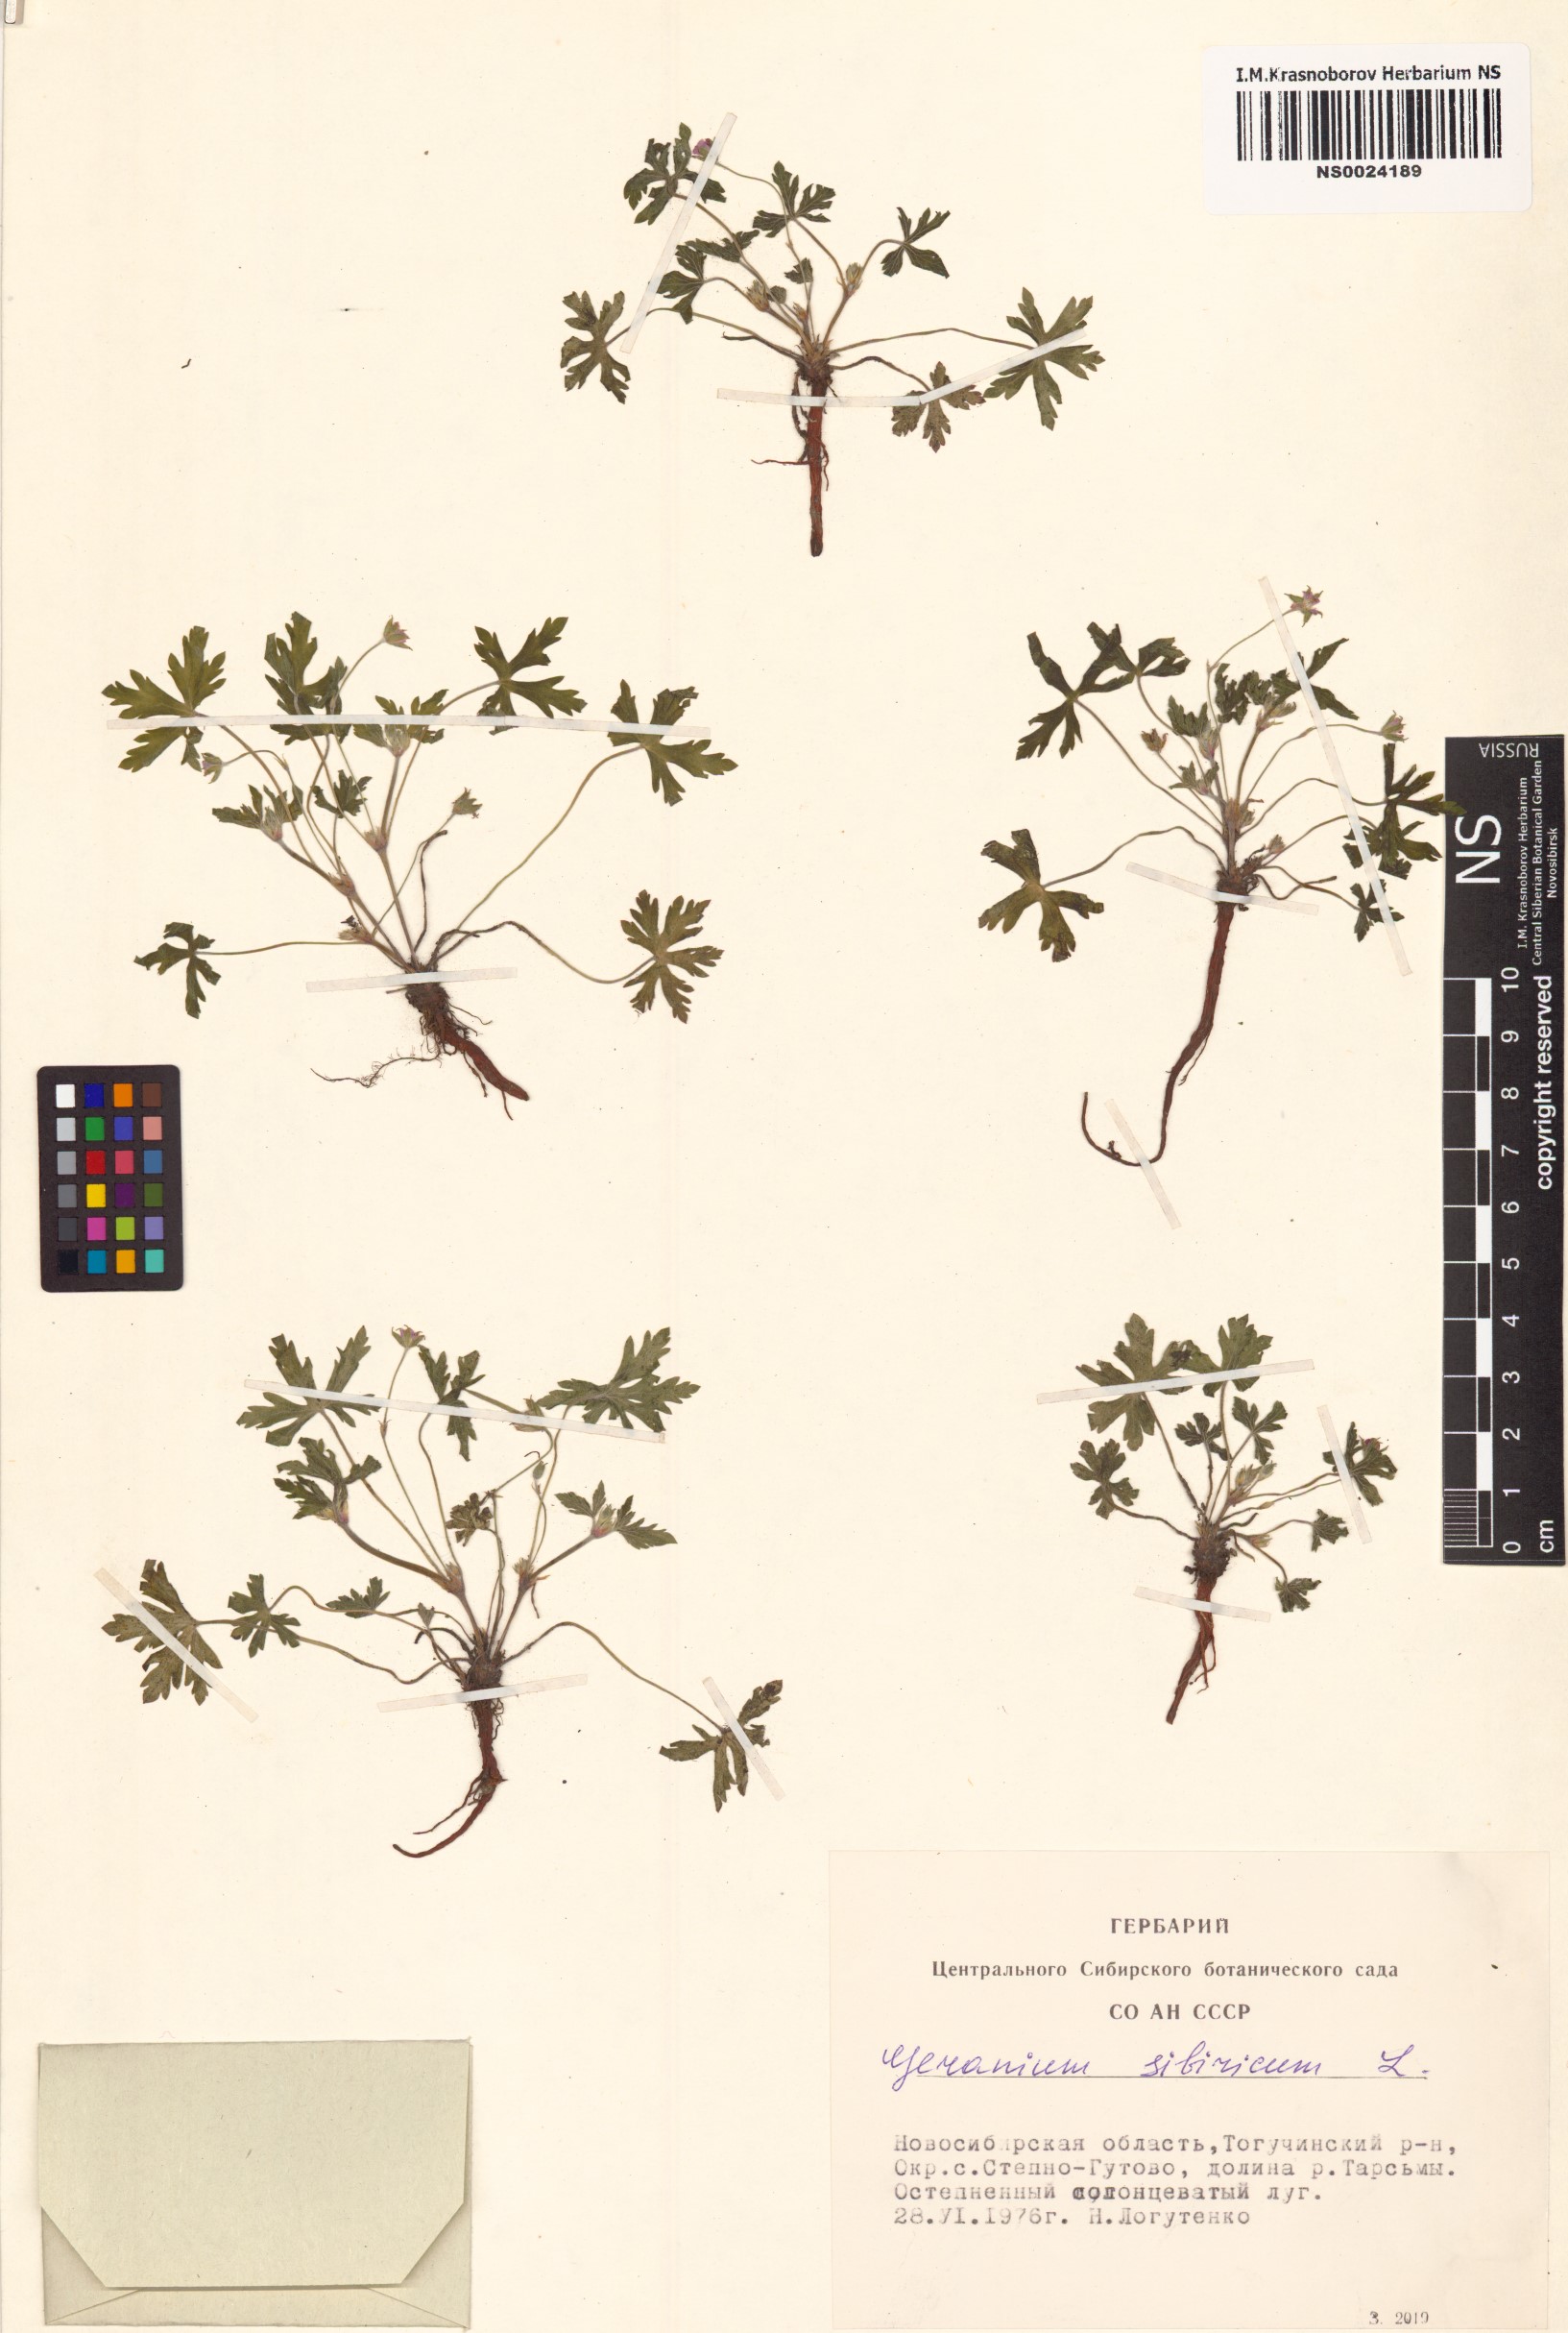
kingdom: Plantae
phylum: Tracheophyta
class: Magnoliopsida
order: Geraniales
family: Geraniaceae
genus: Geranium
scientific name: Geranium sibiricum
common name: Siberian crane's-bill
